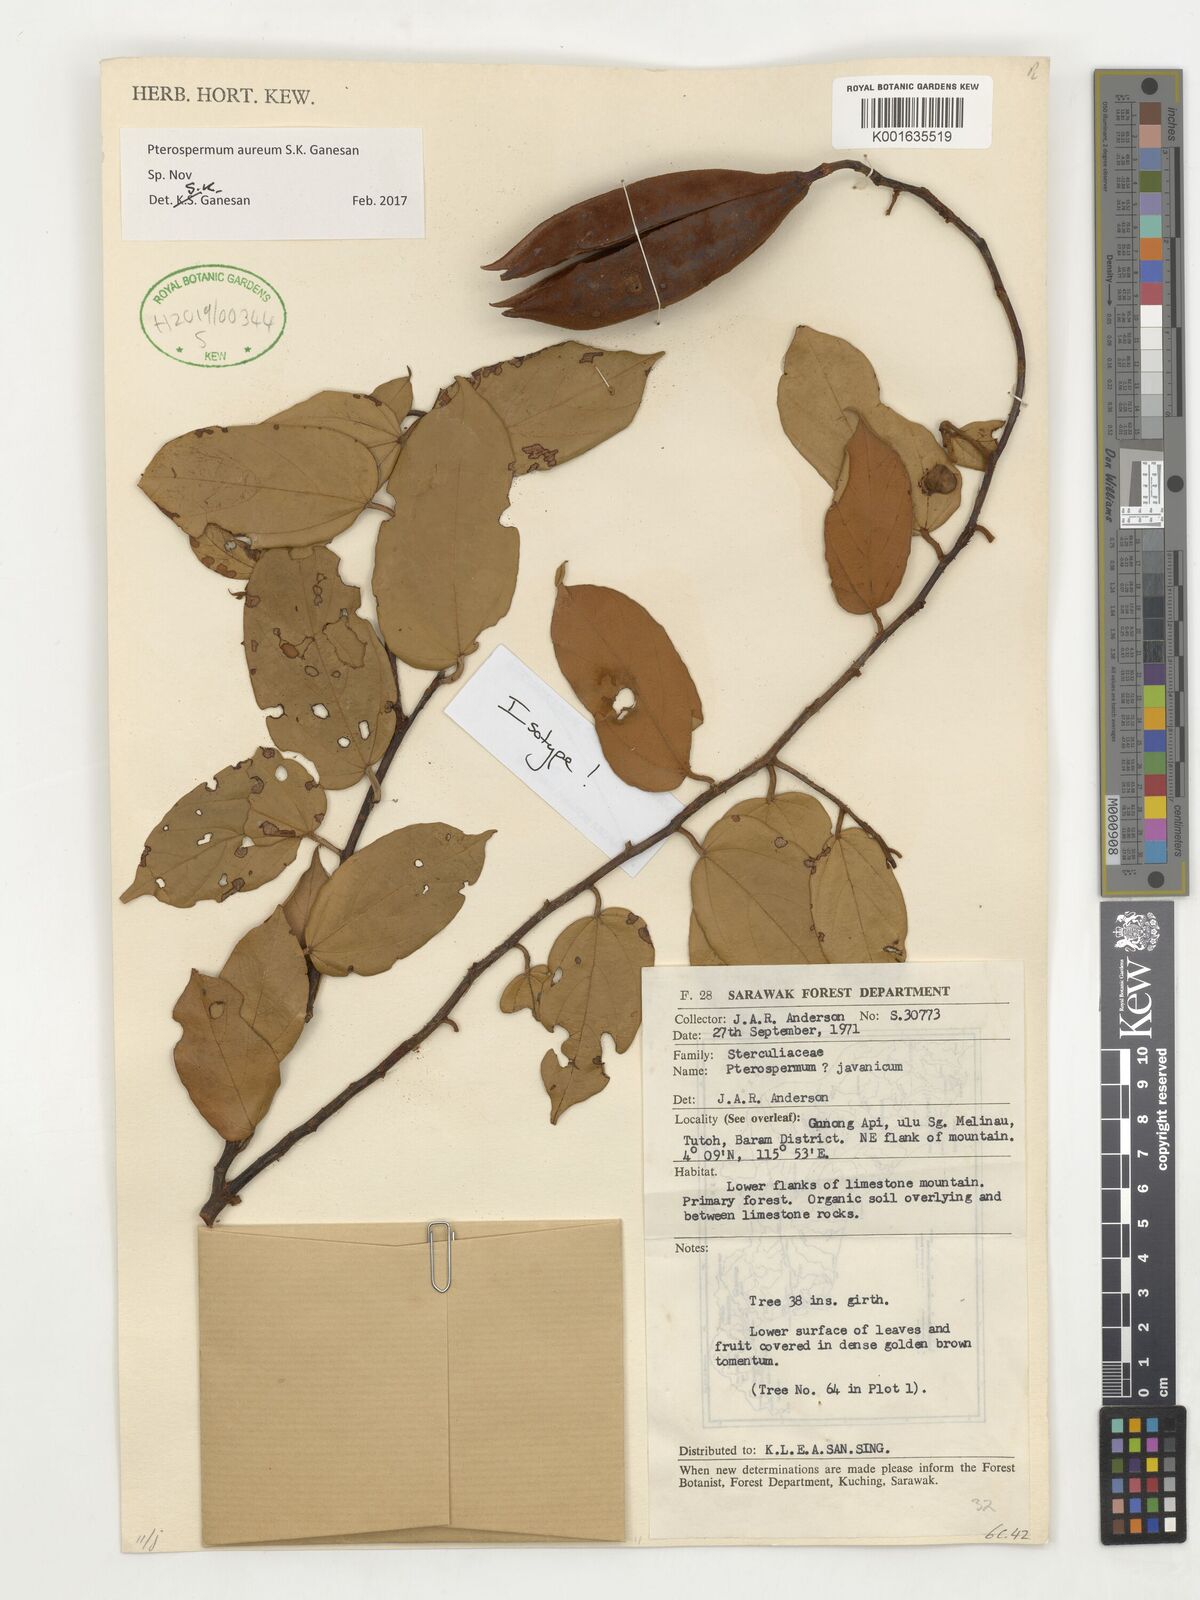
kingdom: Plantae
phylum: Tracheophyta
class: Magnoliopsida
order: Malvales
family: Malvaceae
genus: Pterospermum
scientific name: Pterospermum
